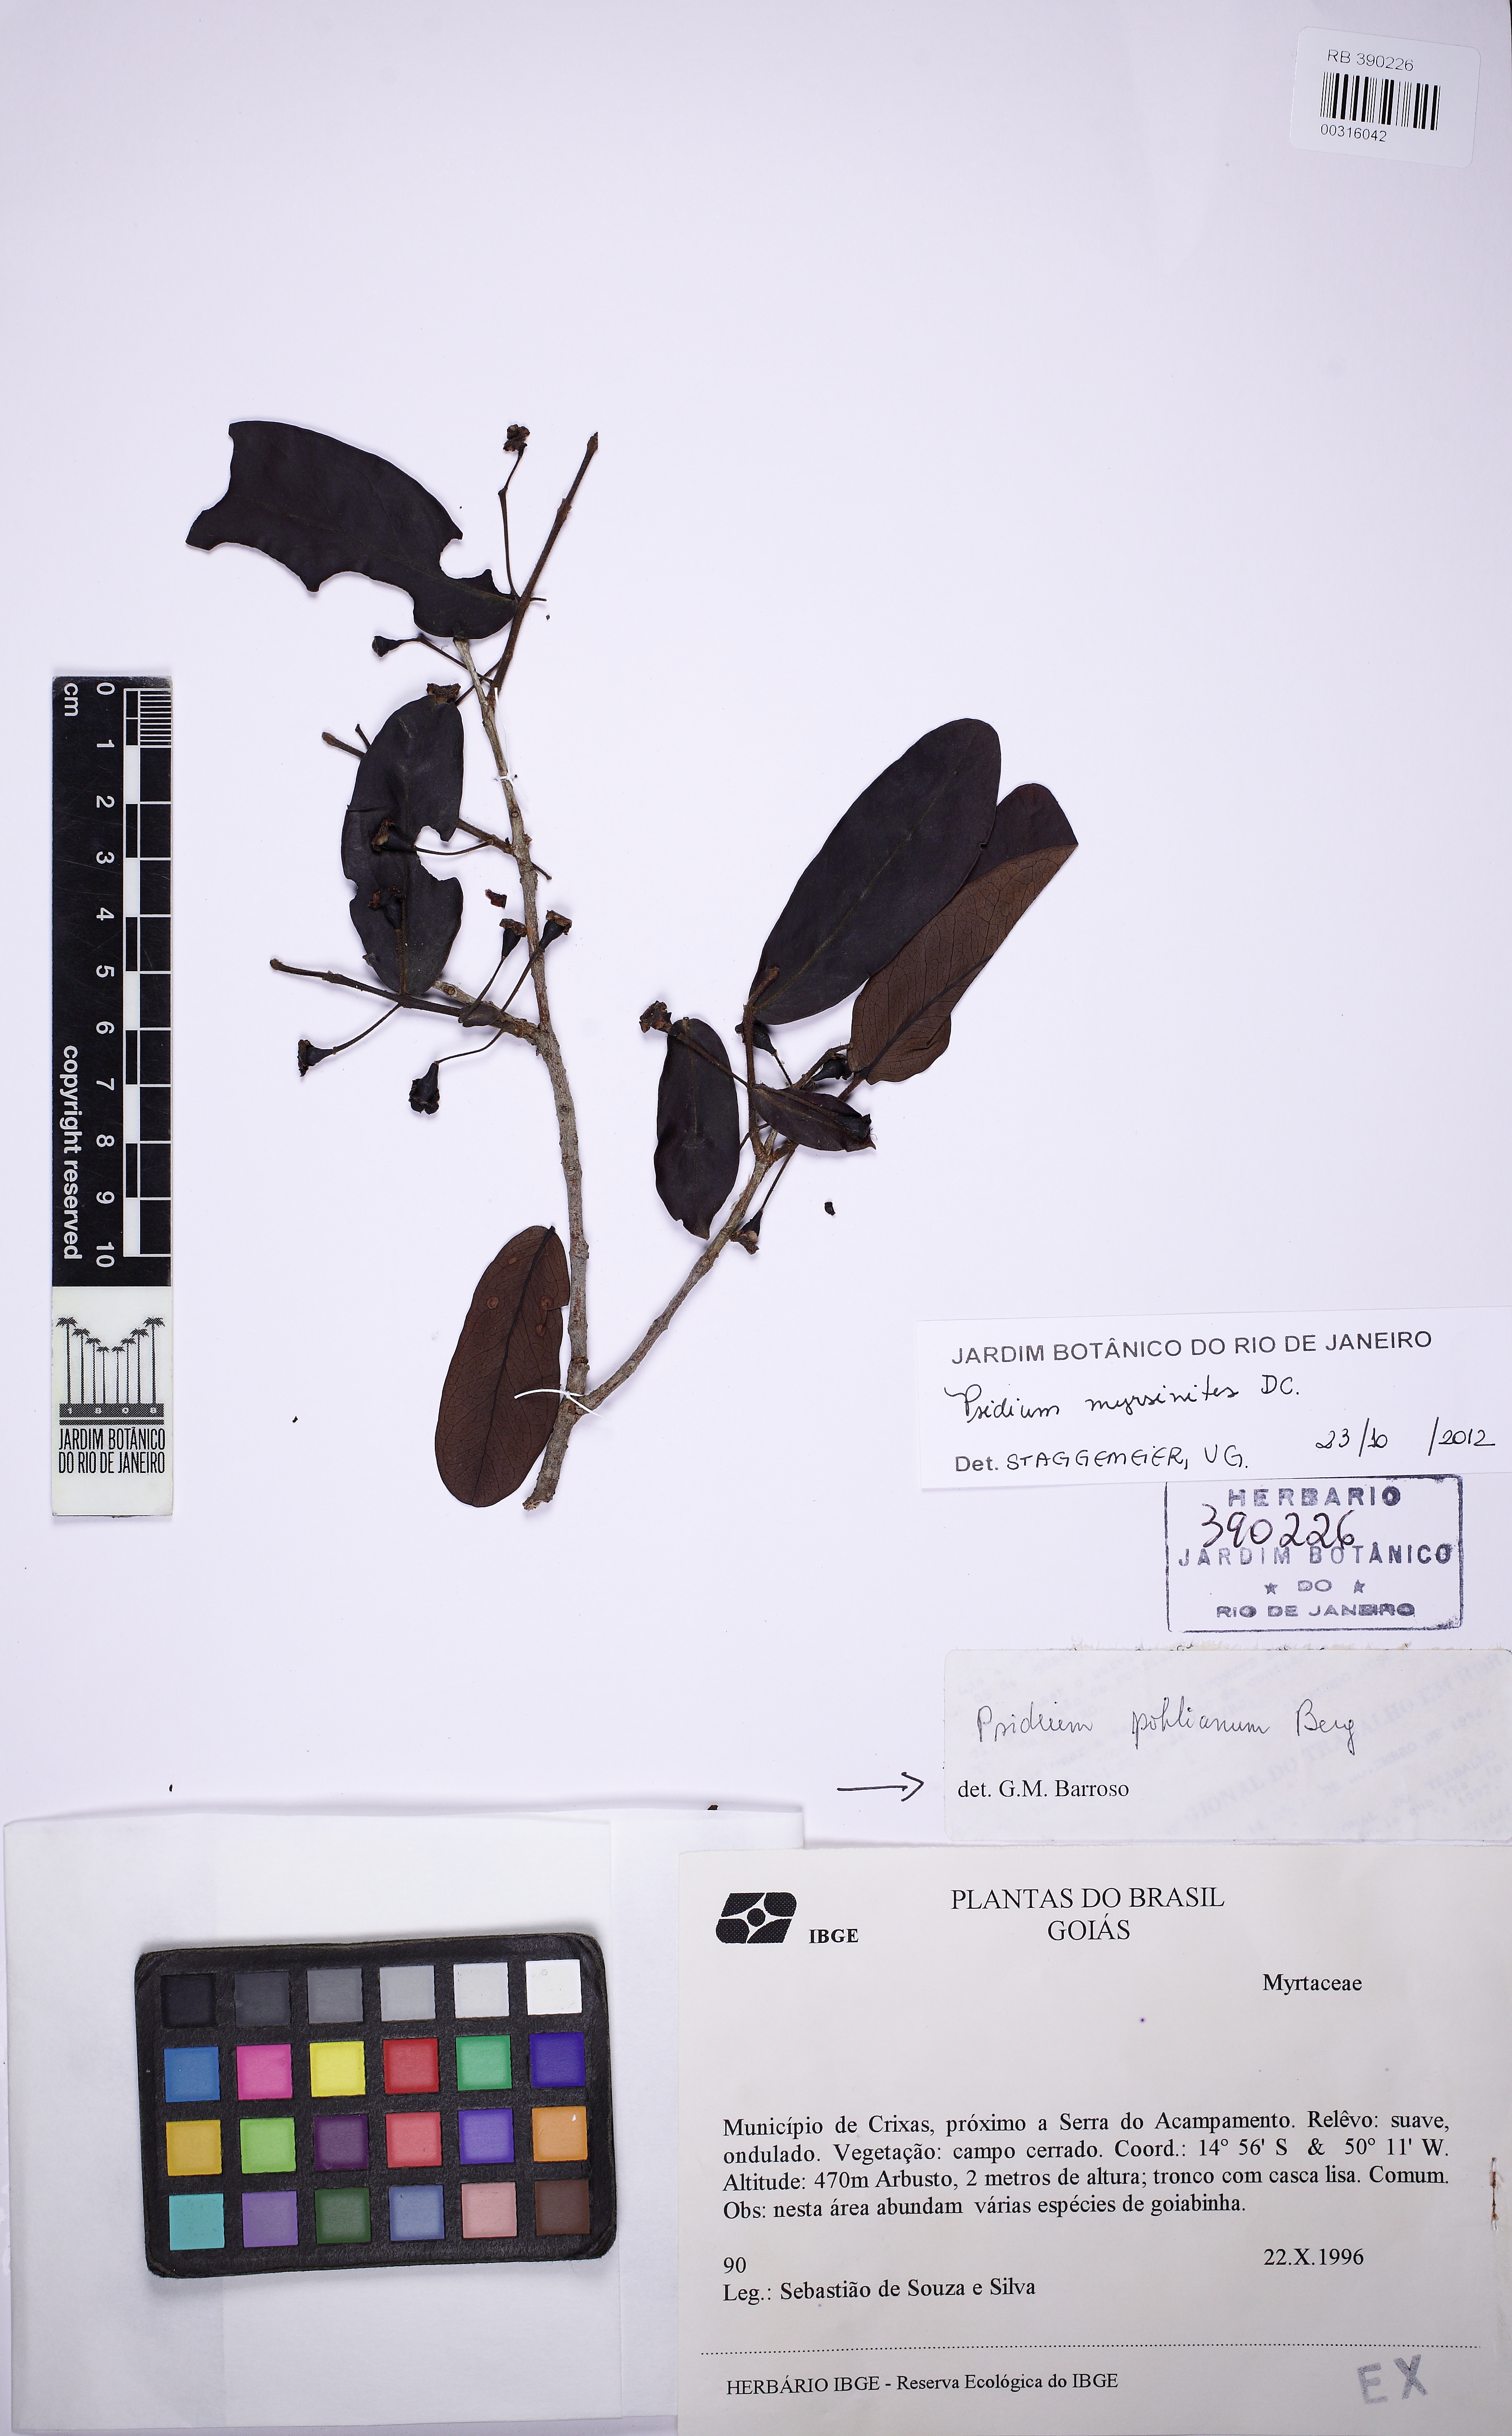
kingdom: Plantae
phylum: Tracheophyta
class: Magnoliopsida
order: Myrtales
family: Myrtaceae
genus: Psidium
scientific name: Psidium myrsinites
